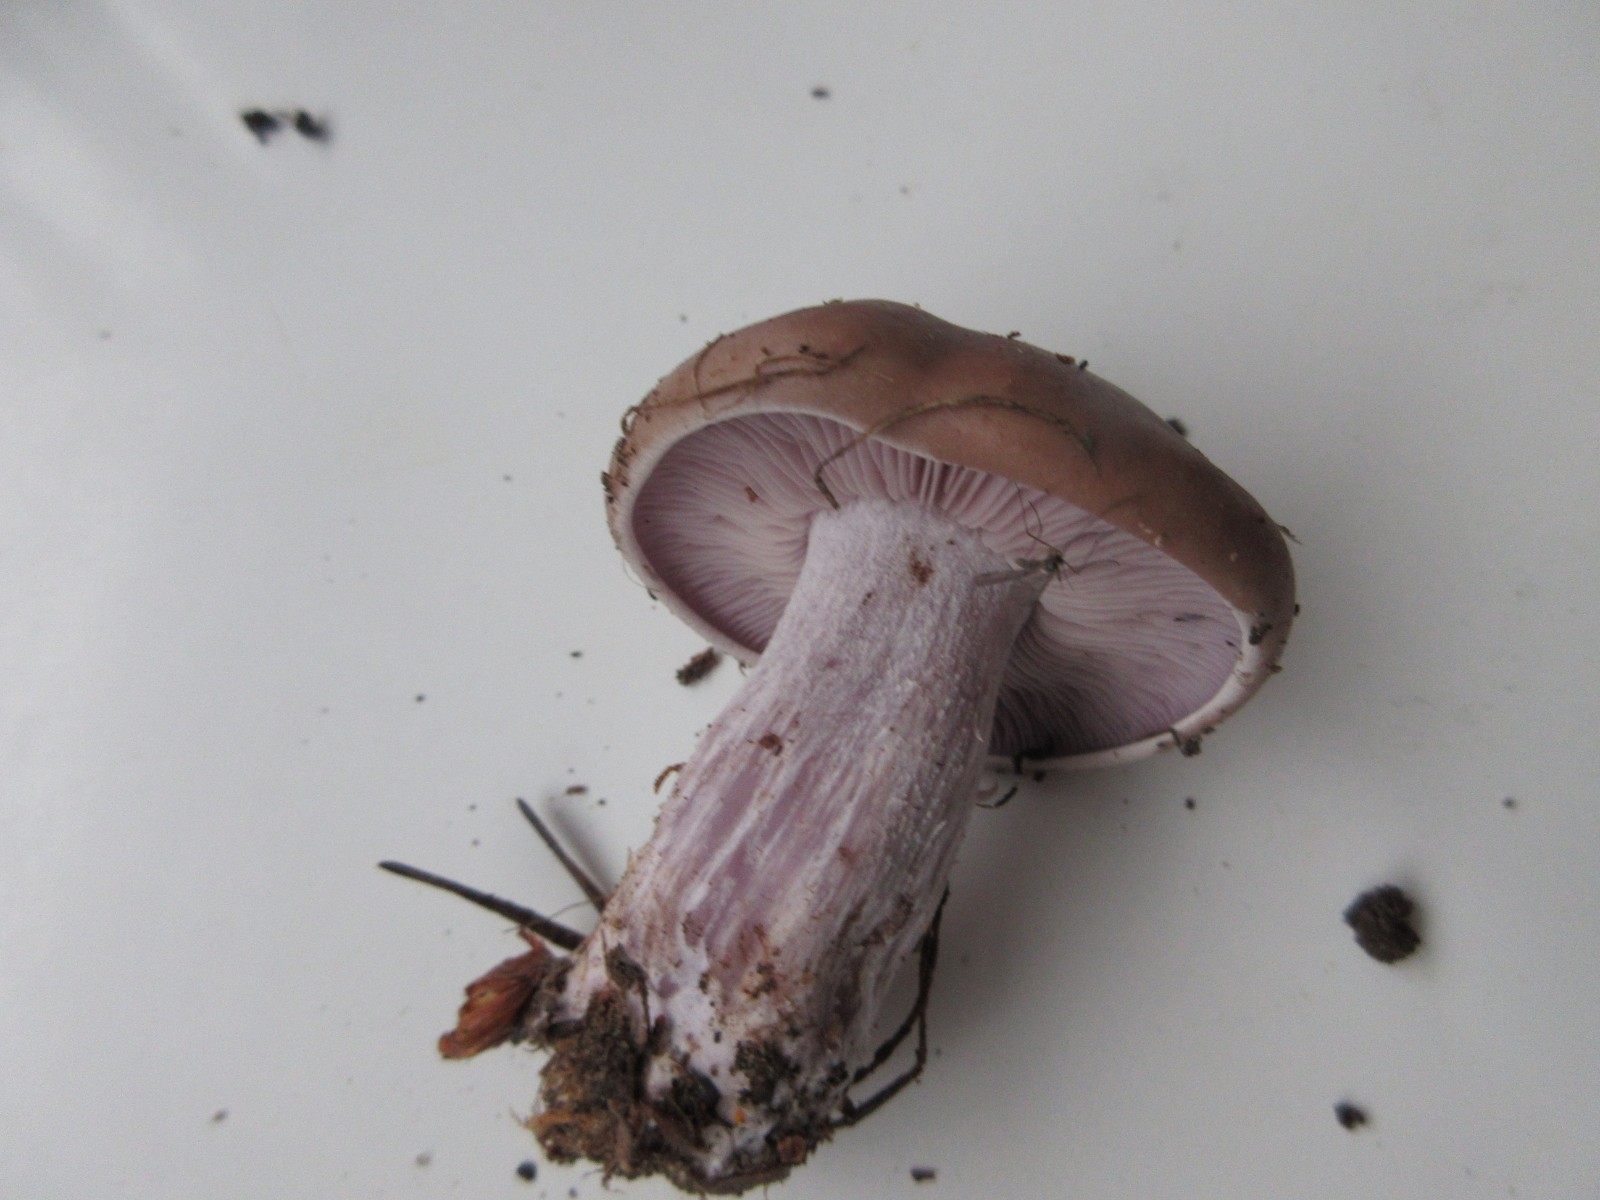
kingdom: Fungi
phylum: Basidiomycota
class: Agaricomycetes
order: Agaricales
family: Tricholomataceae
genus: Lepista
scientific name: Lepista nuda
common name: violet hekseringshat
